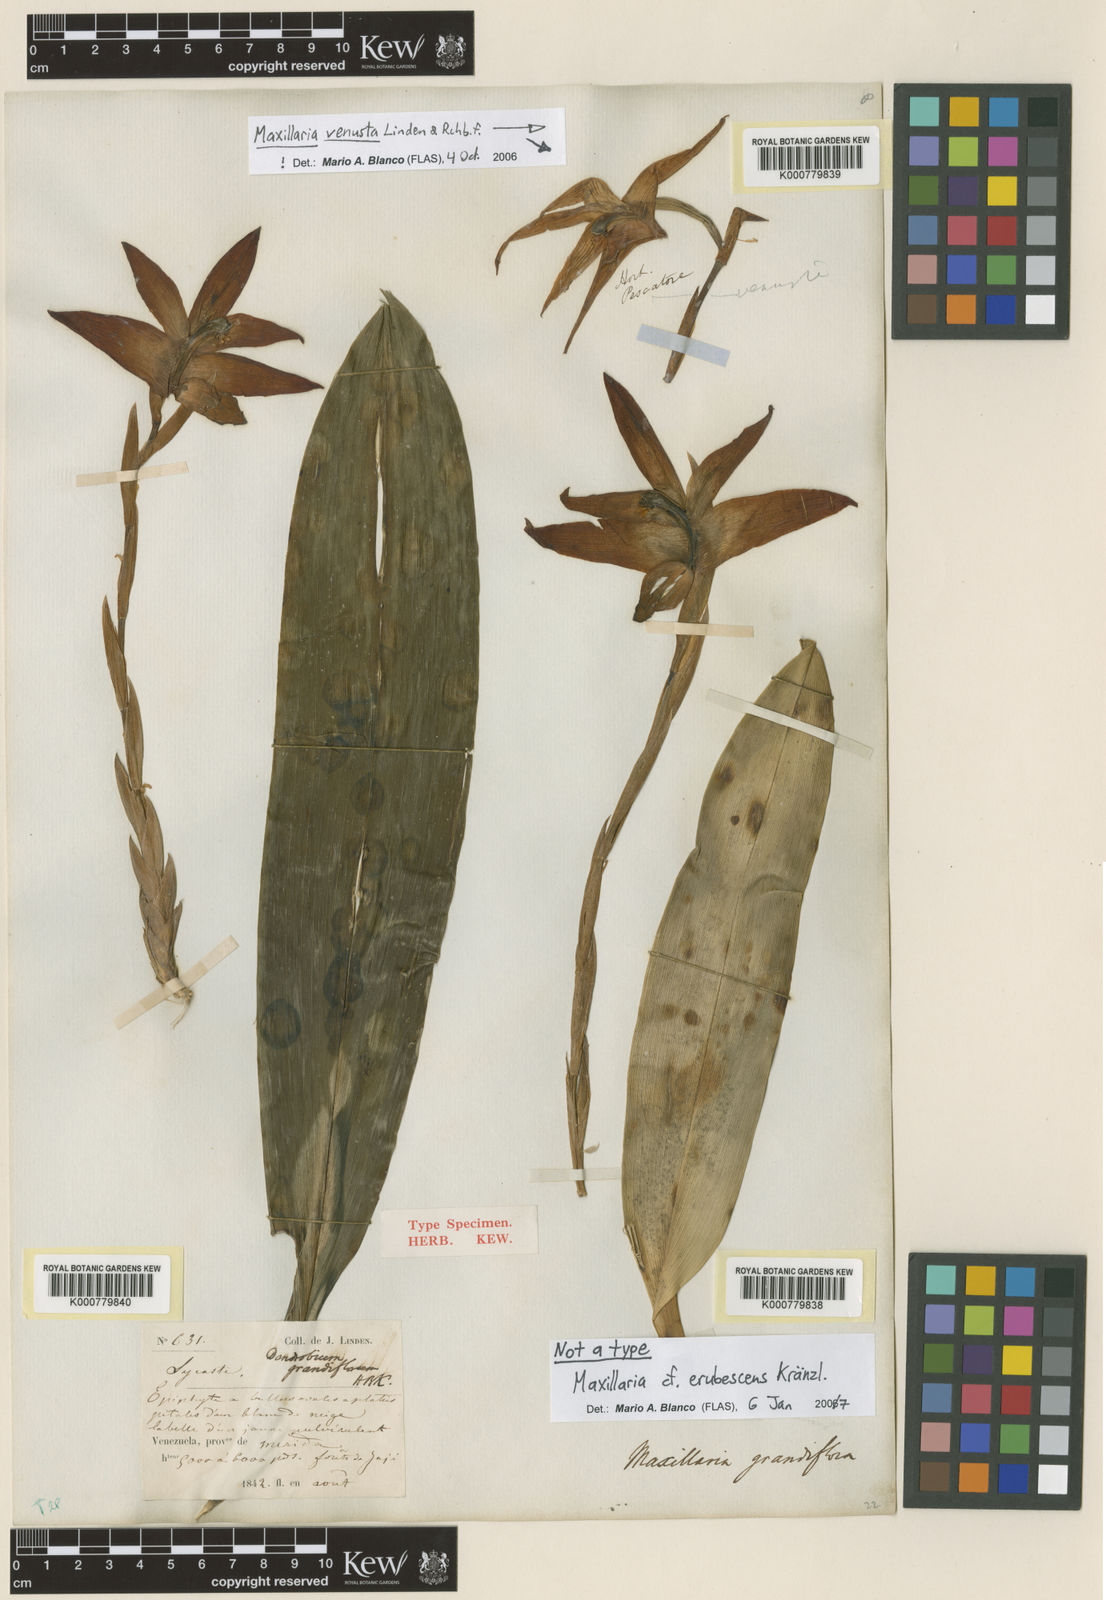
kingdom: Plantae
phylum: Tracheophyta
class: Liliopsida
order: Asparagales
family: Orchidaceae
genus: Maxillaria
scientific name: Maxillaria grandiflora
